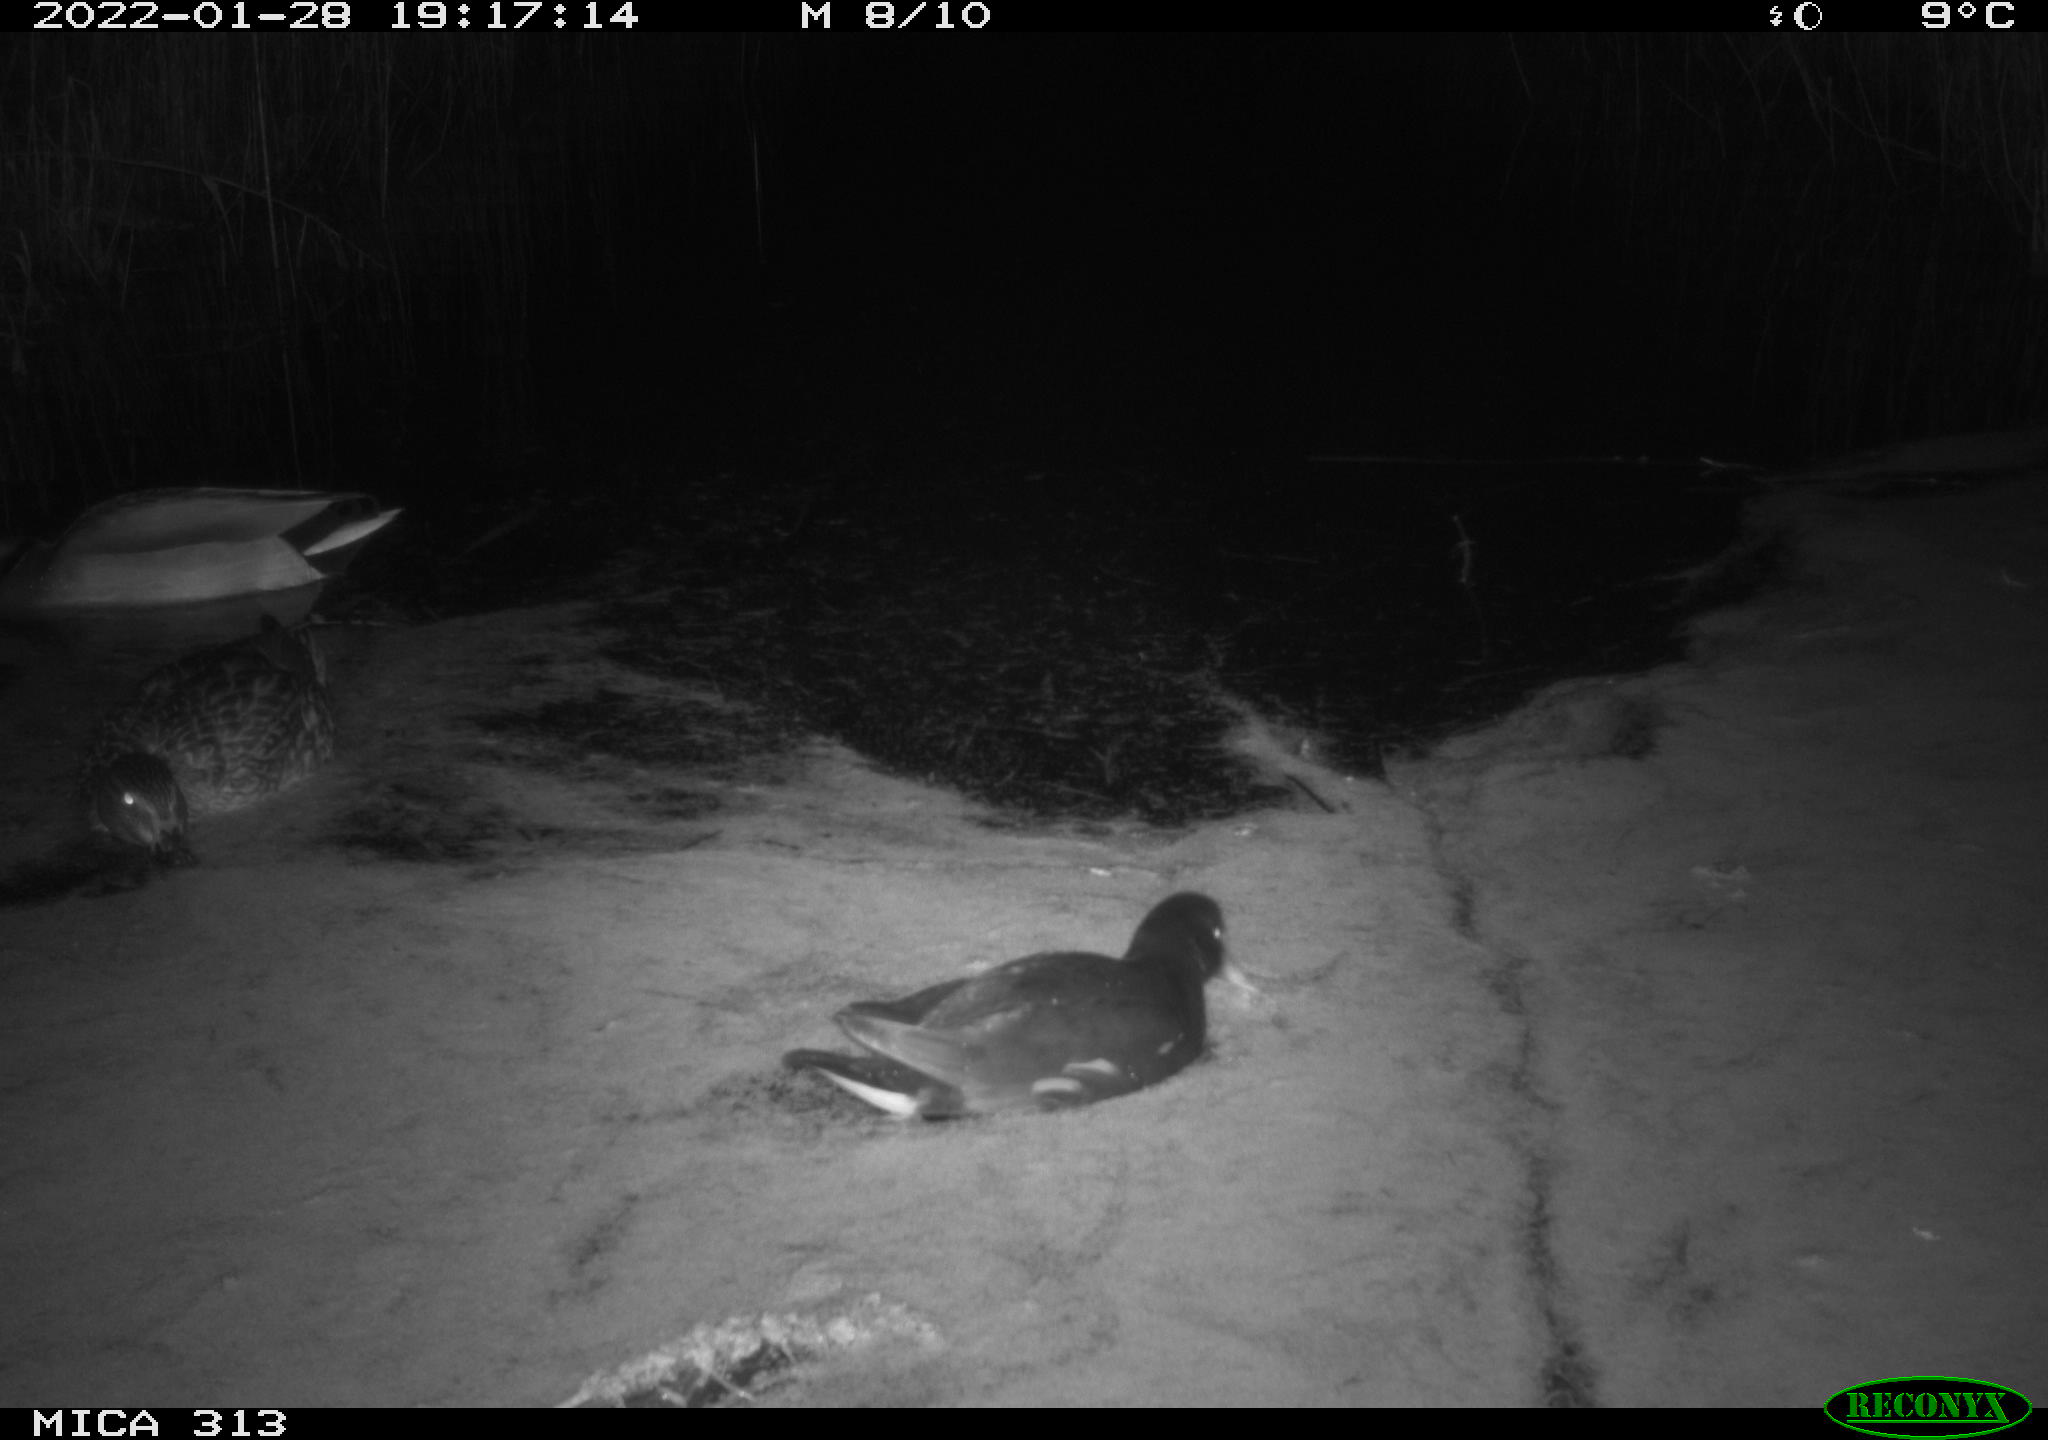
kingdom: Animalia
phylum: Chordata
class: Aves
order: Anseriformes
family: Anatidae
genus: Anas
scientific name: Anas
